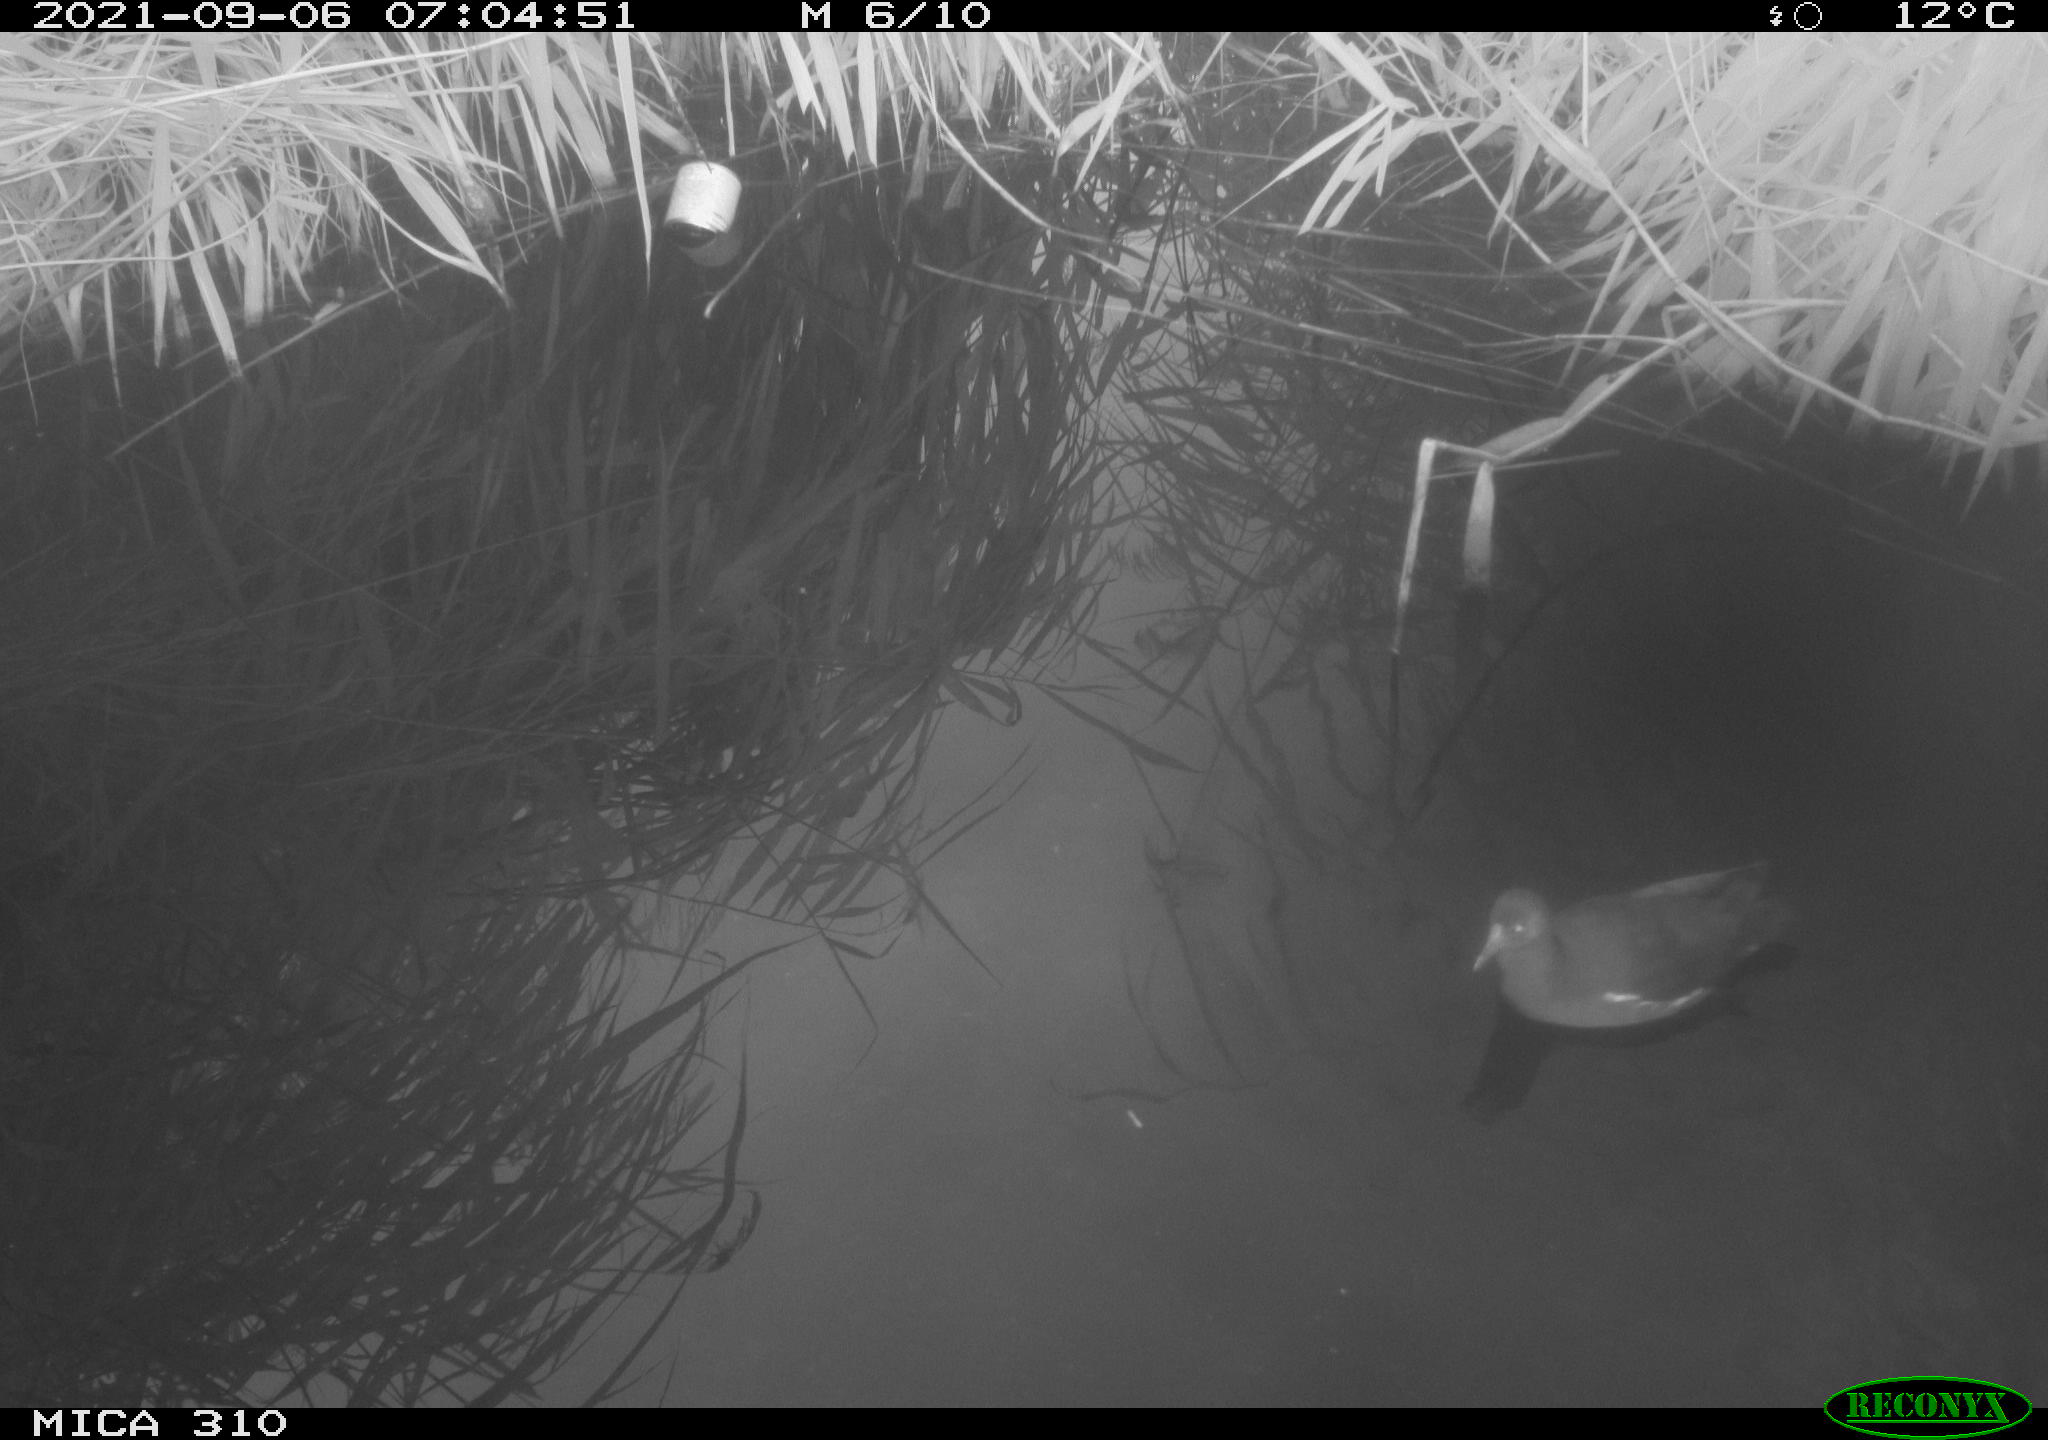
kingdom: Animalia
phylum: Chordata
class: Aves
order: Gruiformes
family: Rallidae
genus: Gallinula
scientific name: Gallinula chloropus
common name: Common moorhen
